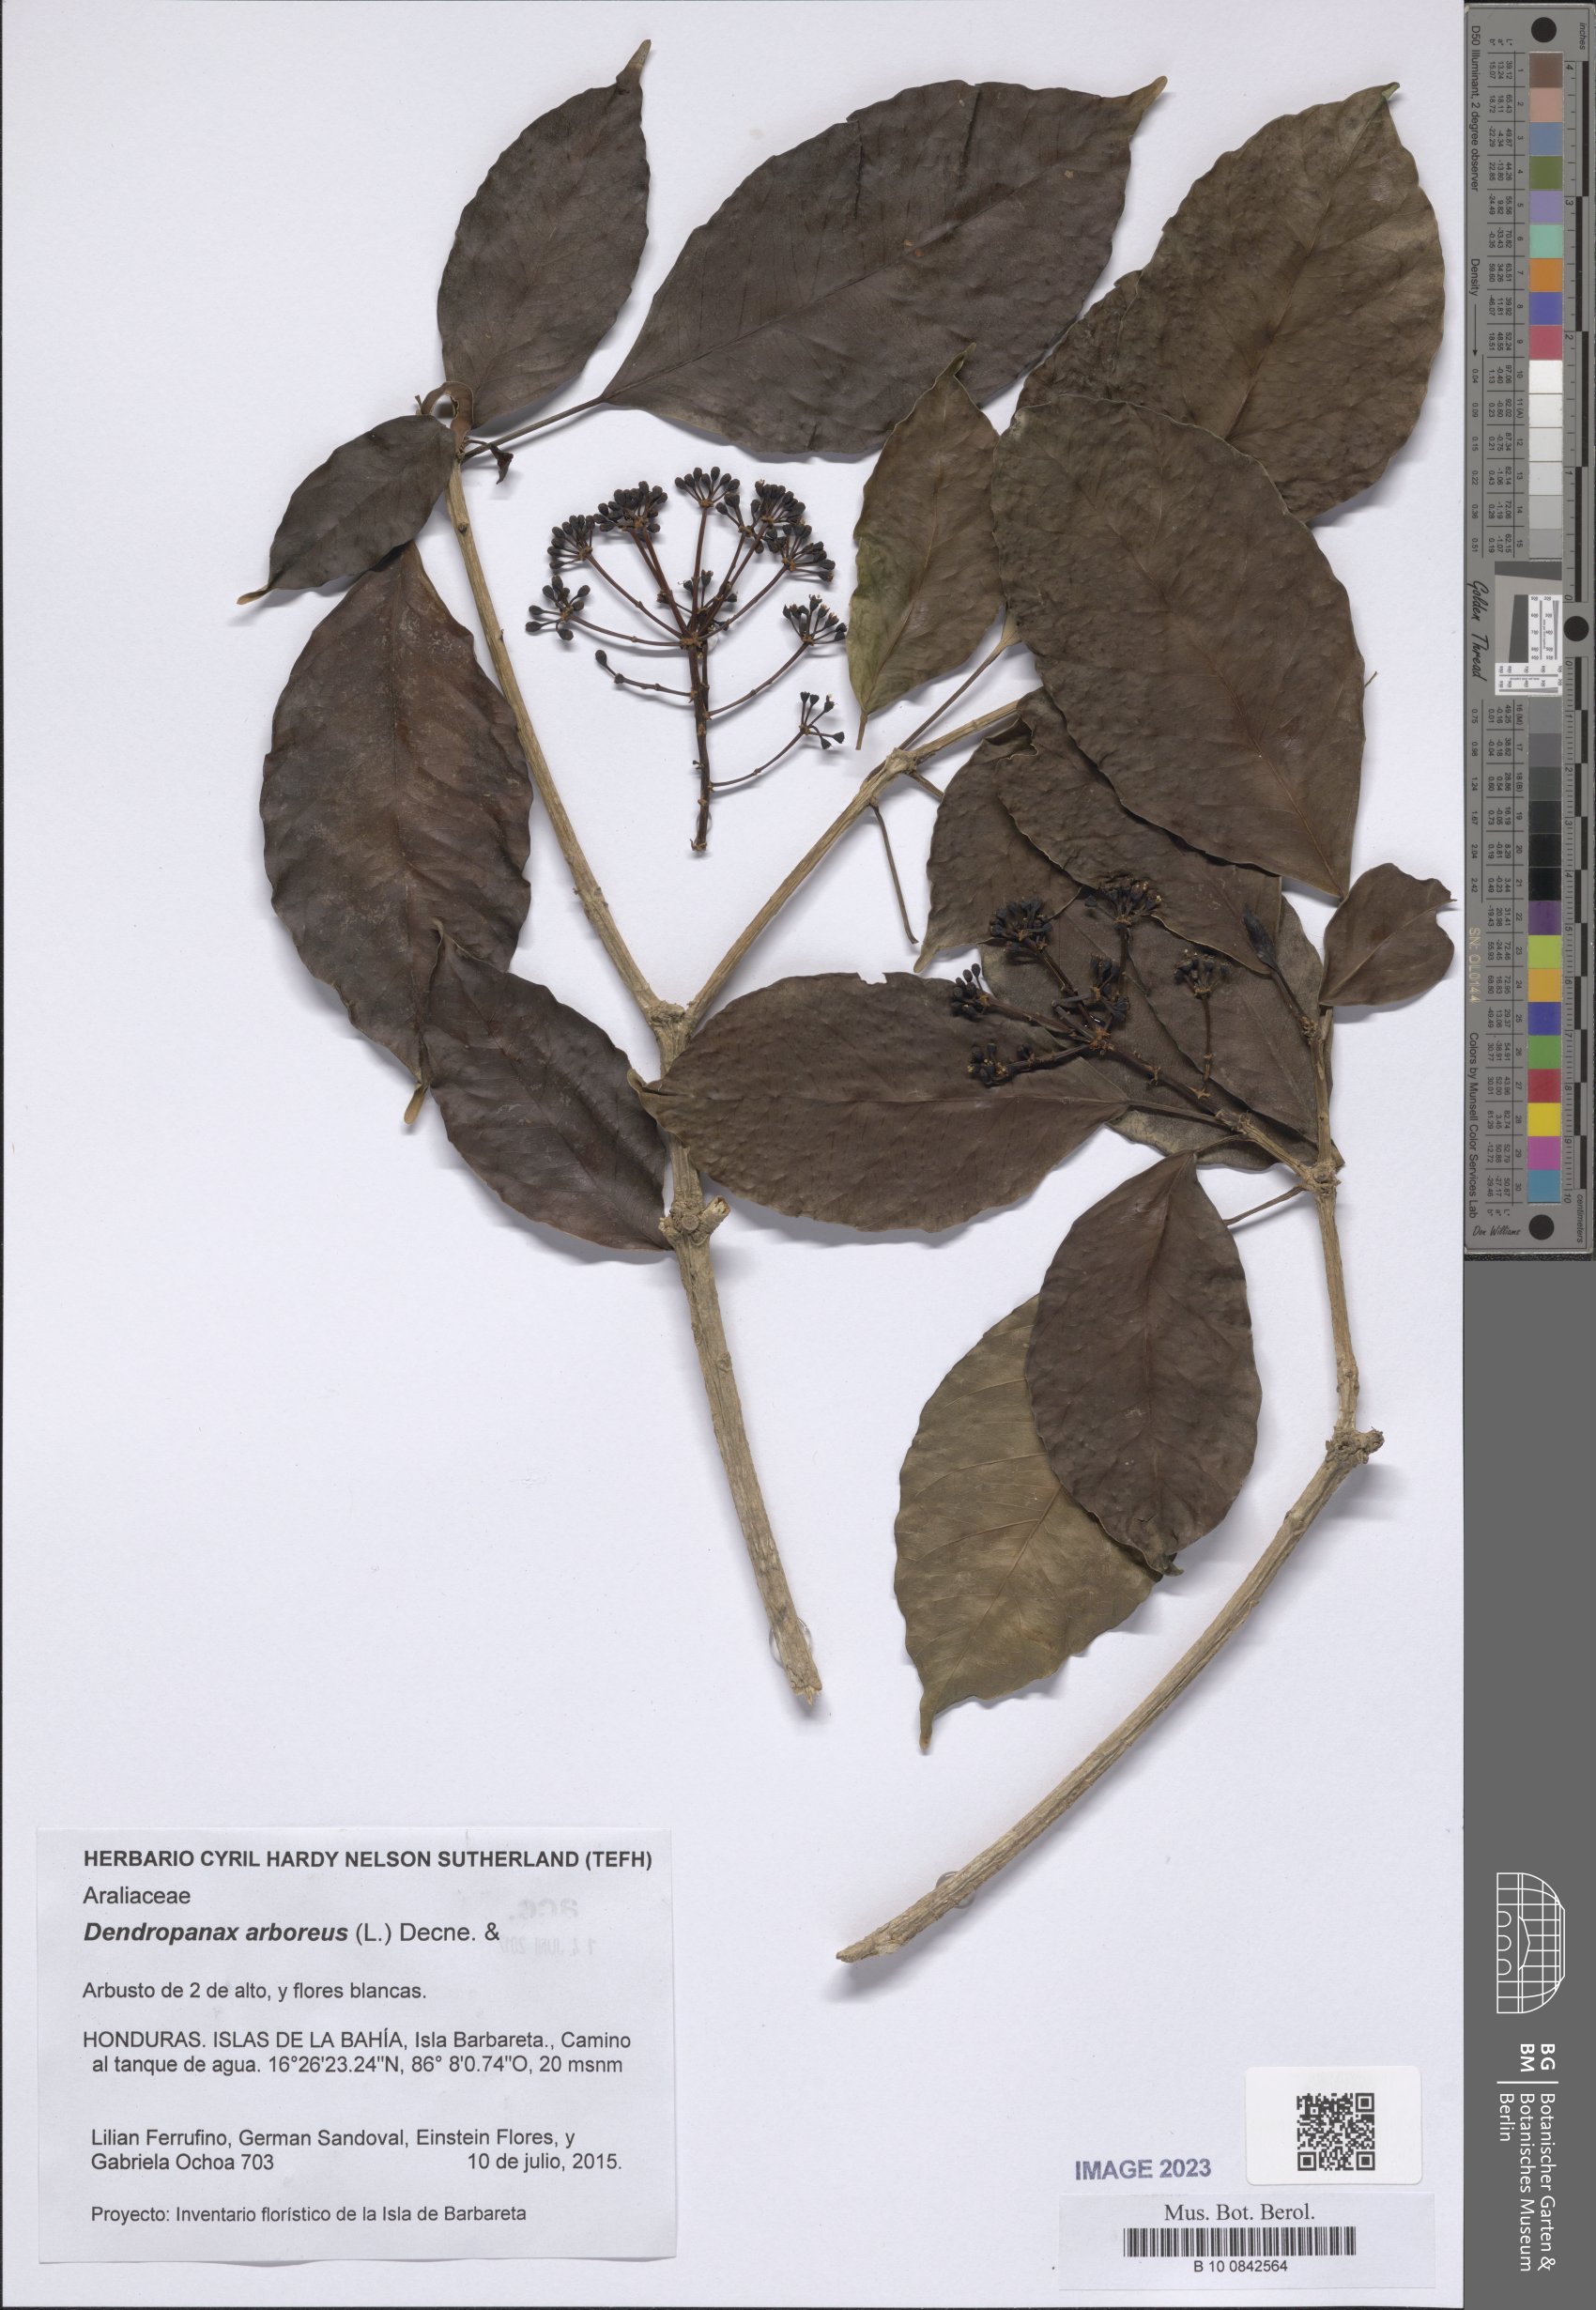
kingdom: Plantae
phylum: Tracheophyta
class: Magnoliopsida
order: Apiales
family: Araliaceae
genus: Dendropanax
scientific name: Dendropanax arboreus
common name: Potato-wood
